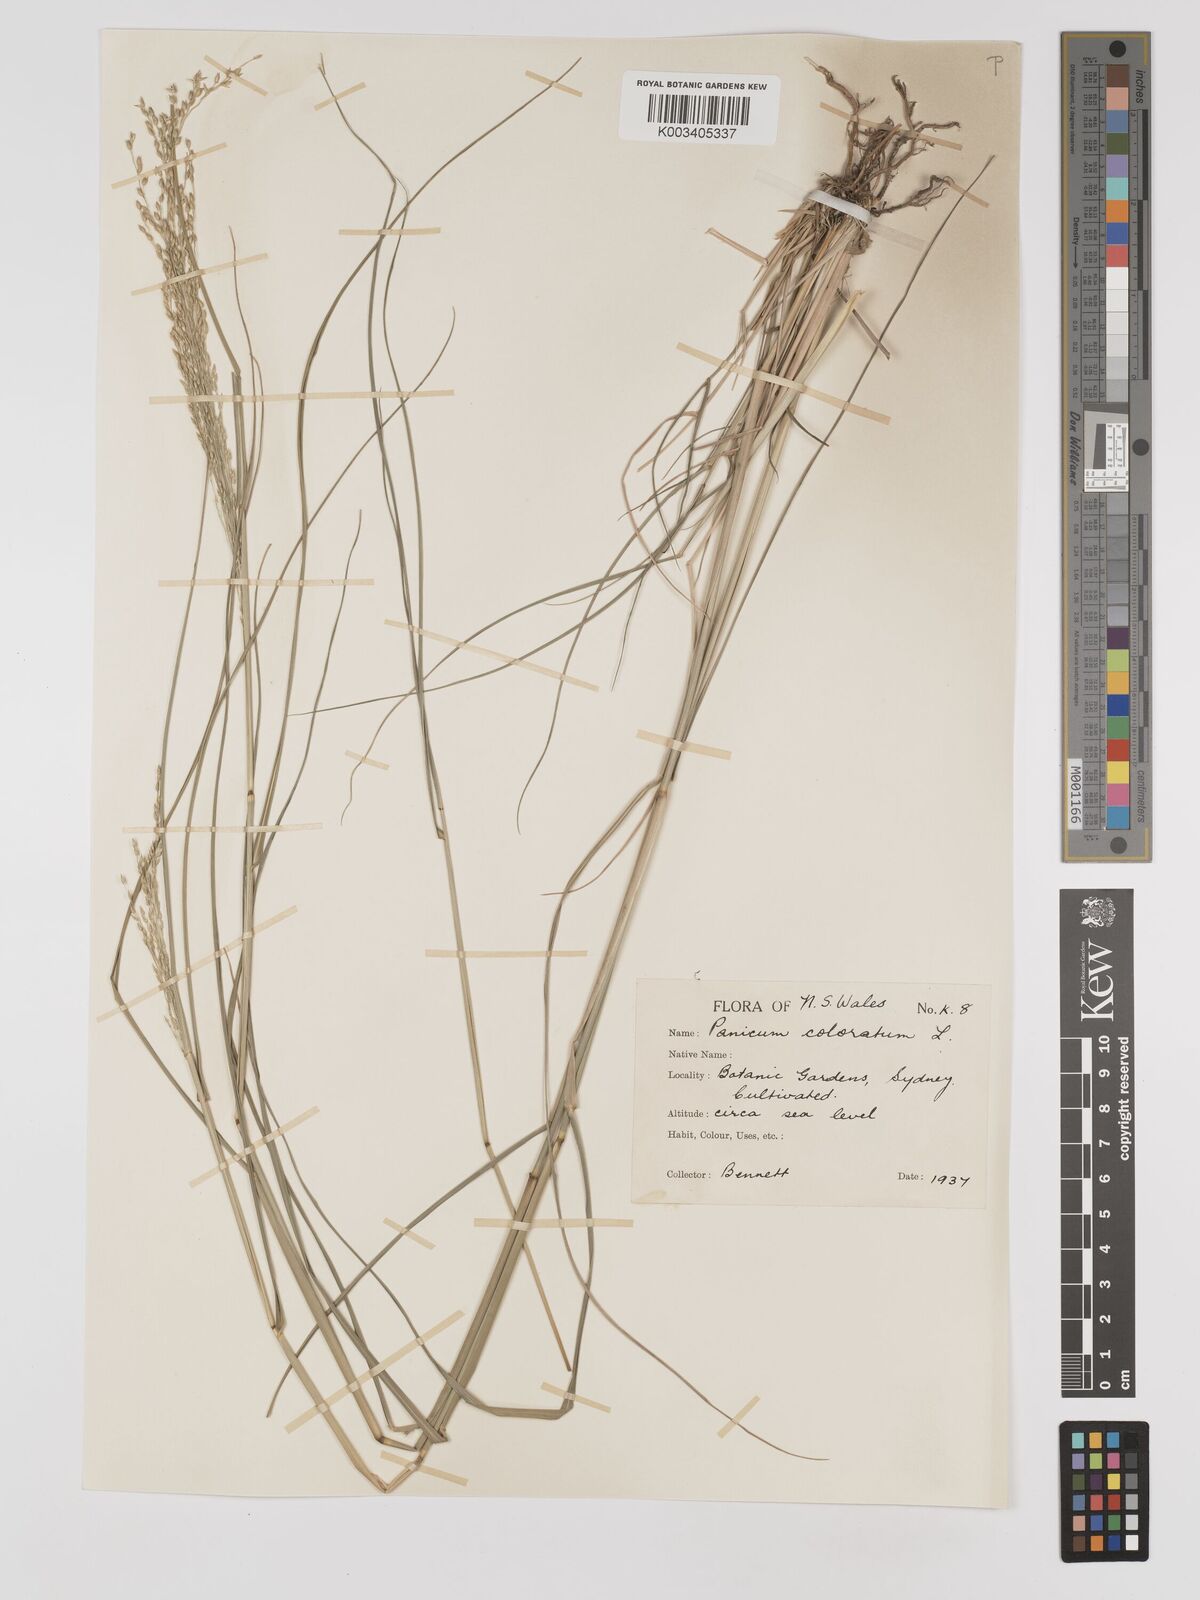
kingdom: Plantae
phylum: Tracheophyta
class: Liliopsida
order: Poales
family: Poaceae
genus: Panicum
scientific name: Panicum coloratum
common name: Kleingrass
